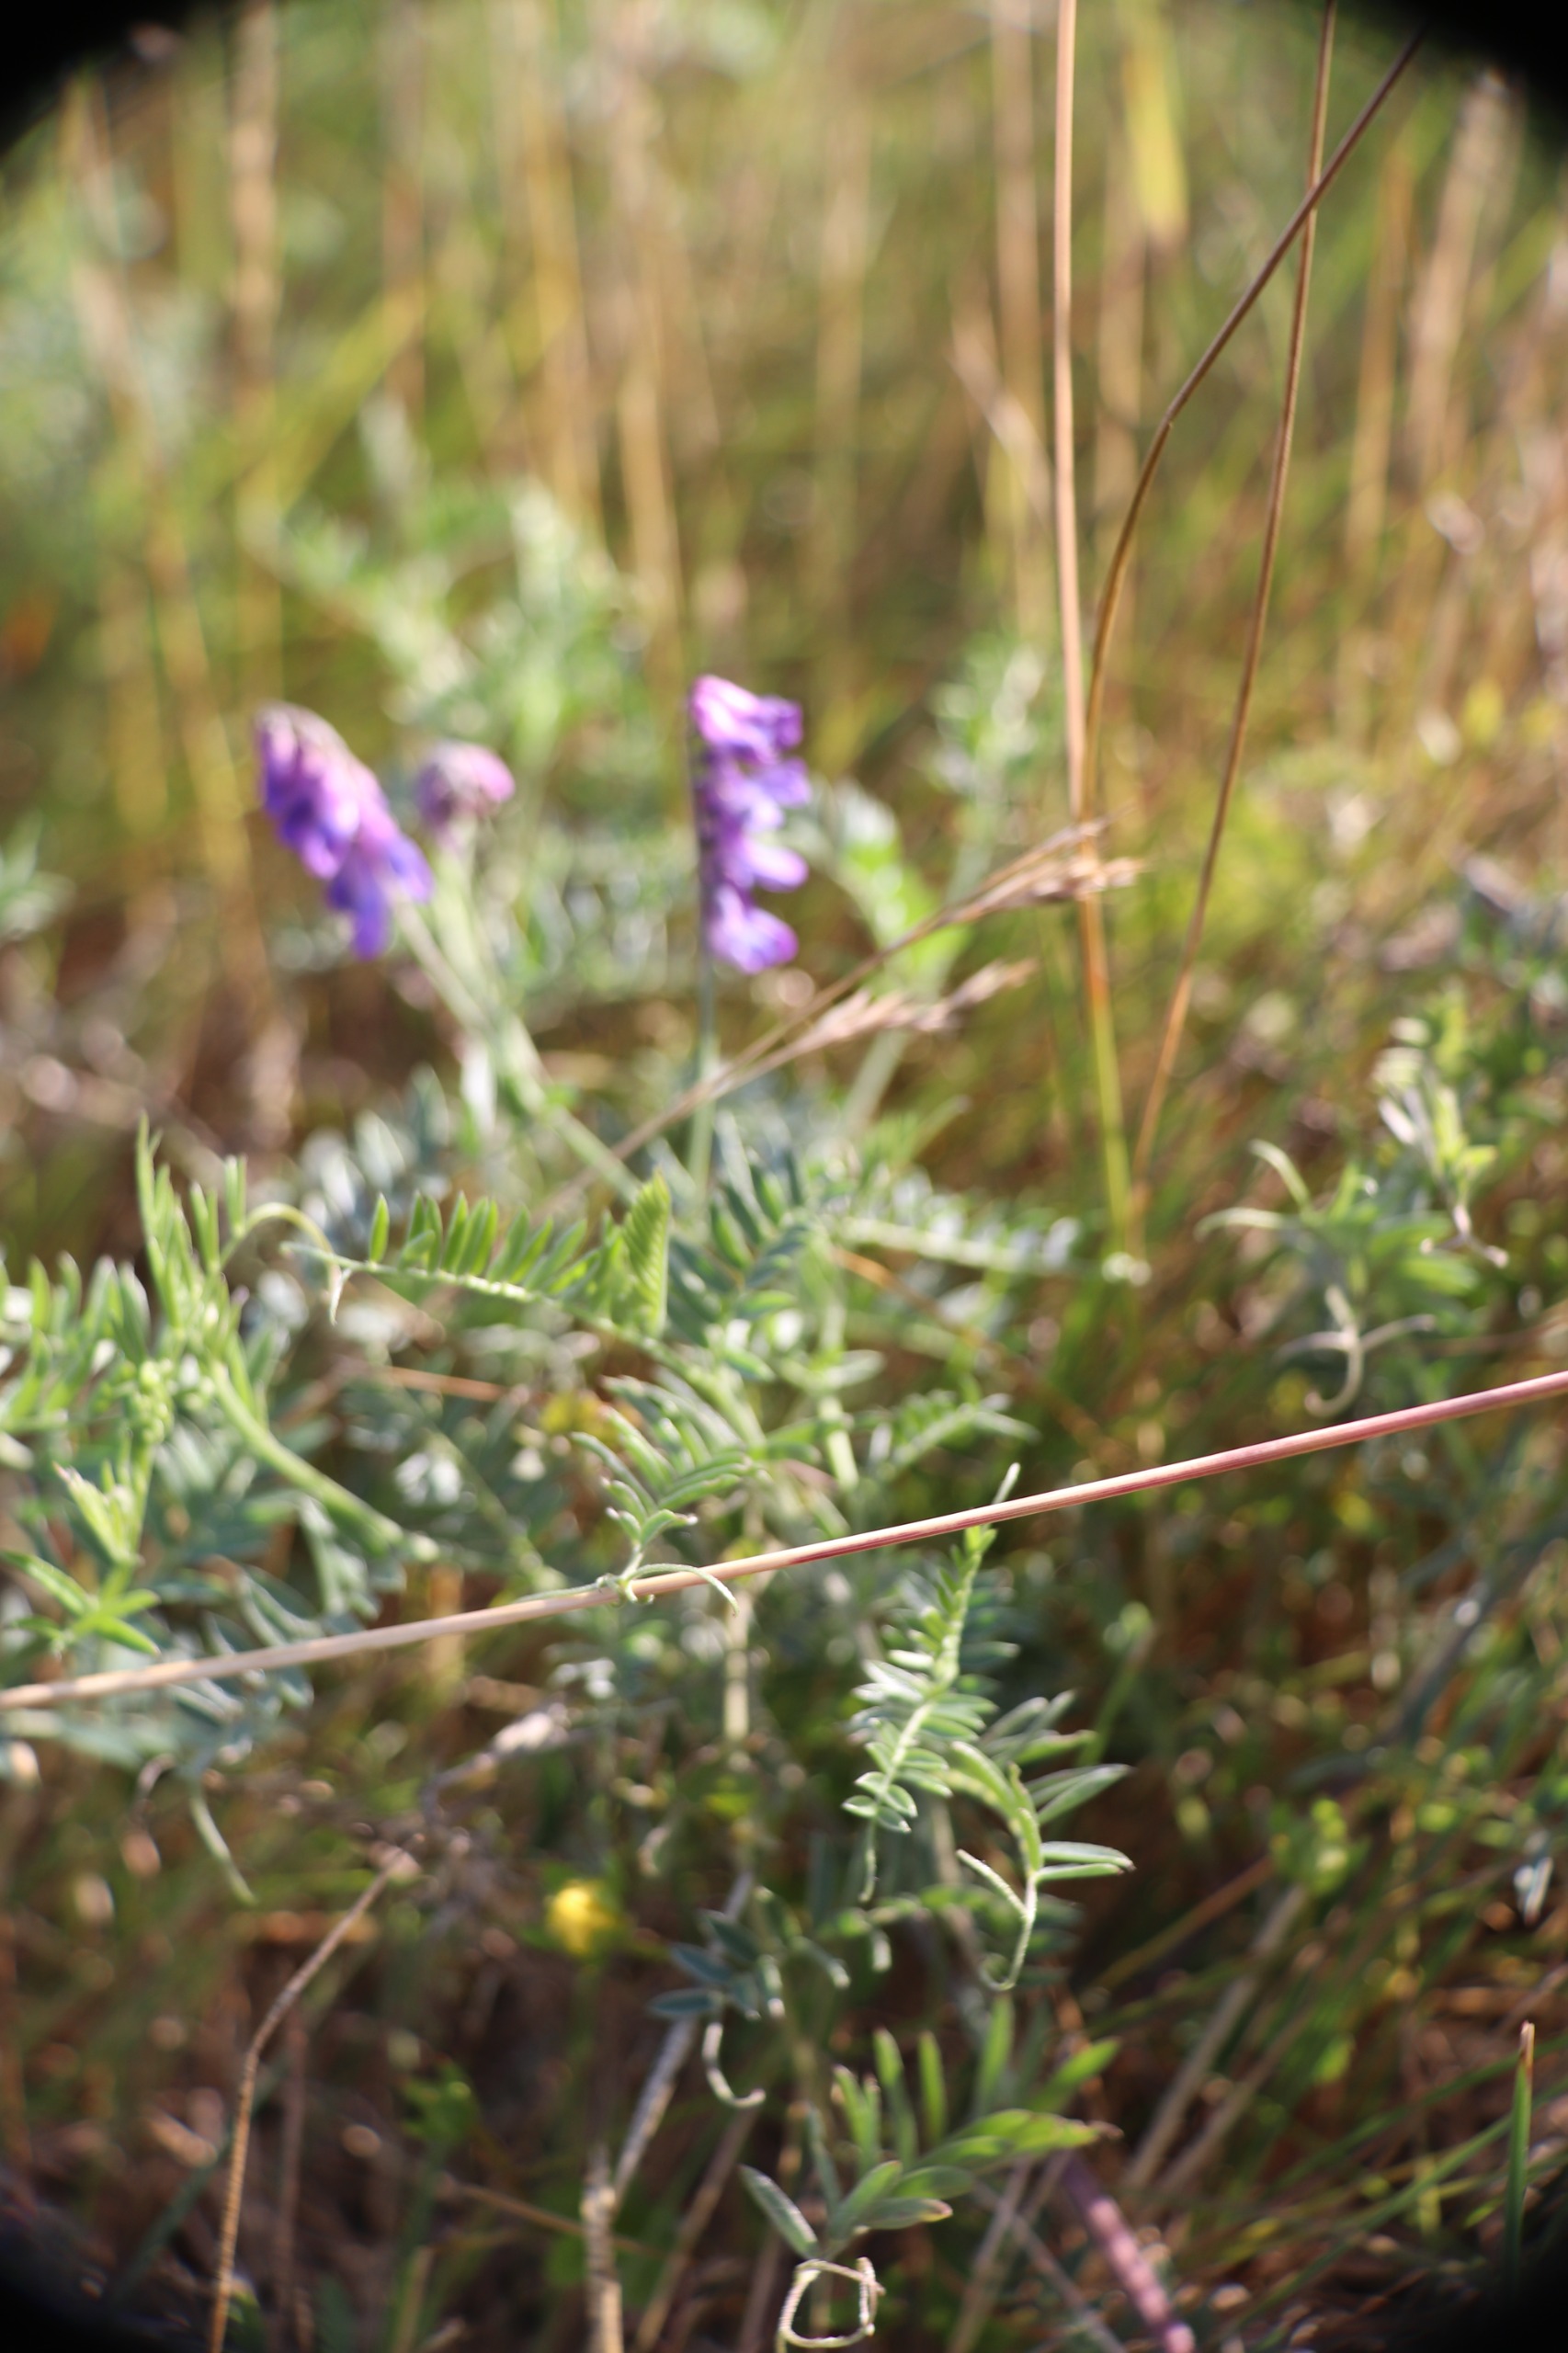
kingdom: Plantae
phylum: Tracheophyta
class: Magnoliopsida
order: Fabales
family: Fabaceae
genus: Vicia
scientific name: Vicia cracca
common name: Muse-vikke
